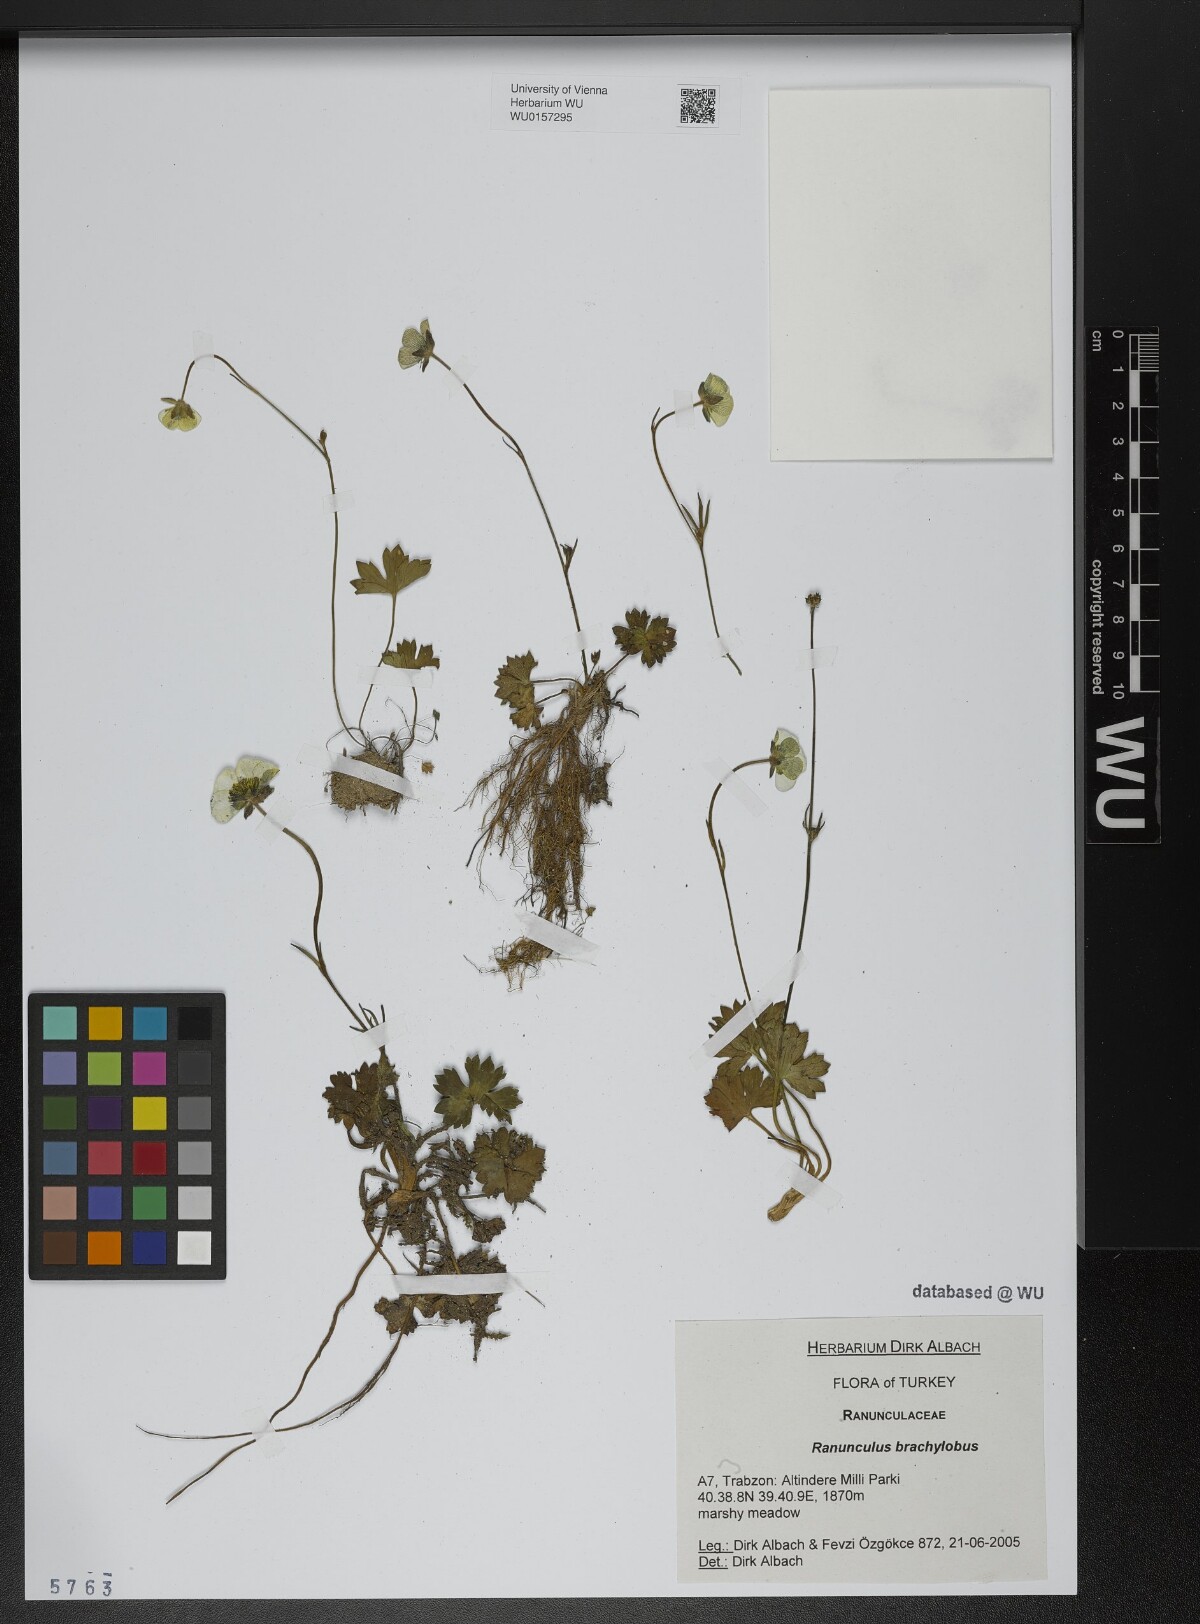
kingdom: Plantae
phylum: Tracheophyta
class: Magnoliopsida
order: Ranunculales
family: Ranunculaceae
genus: Ranunculus
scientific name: Ranunculus brachylobus
